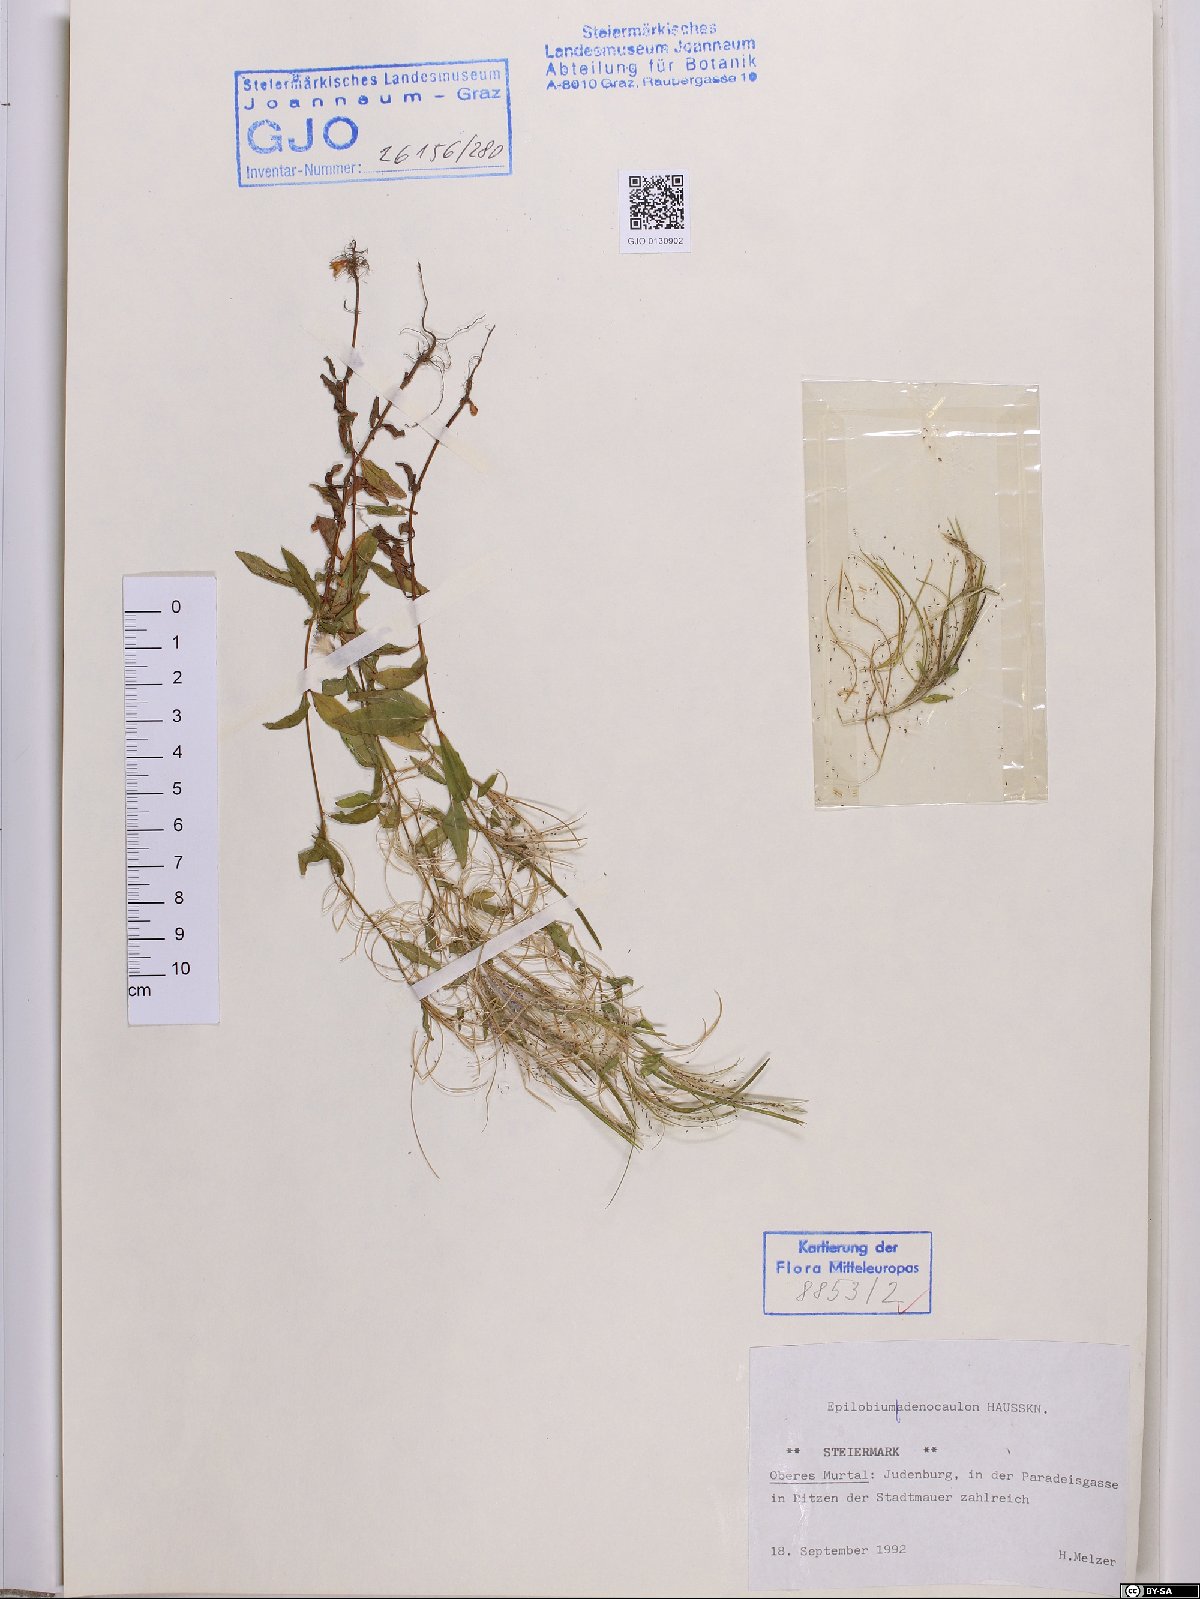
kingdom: Plantae
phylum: Tracheophyta
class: Magnoliopsida
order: Myrtales
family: Onagraceae
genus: Epilobium
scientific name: Epilobium ciliatum
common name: American willowherb
